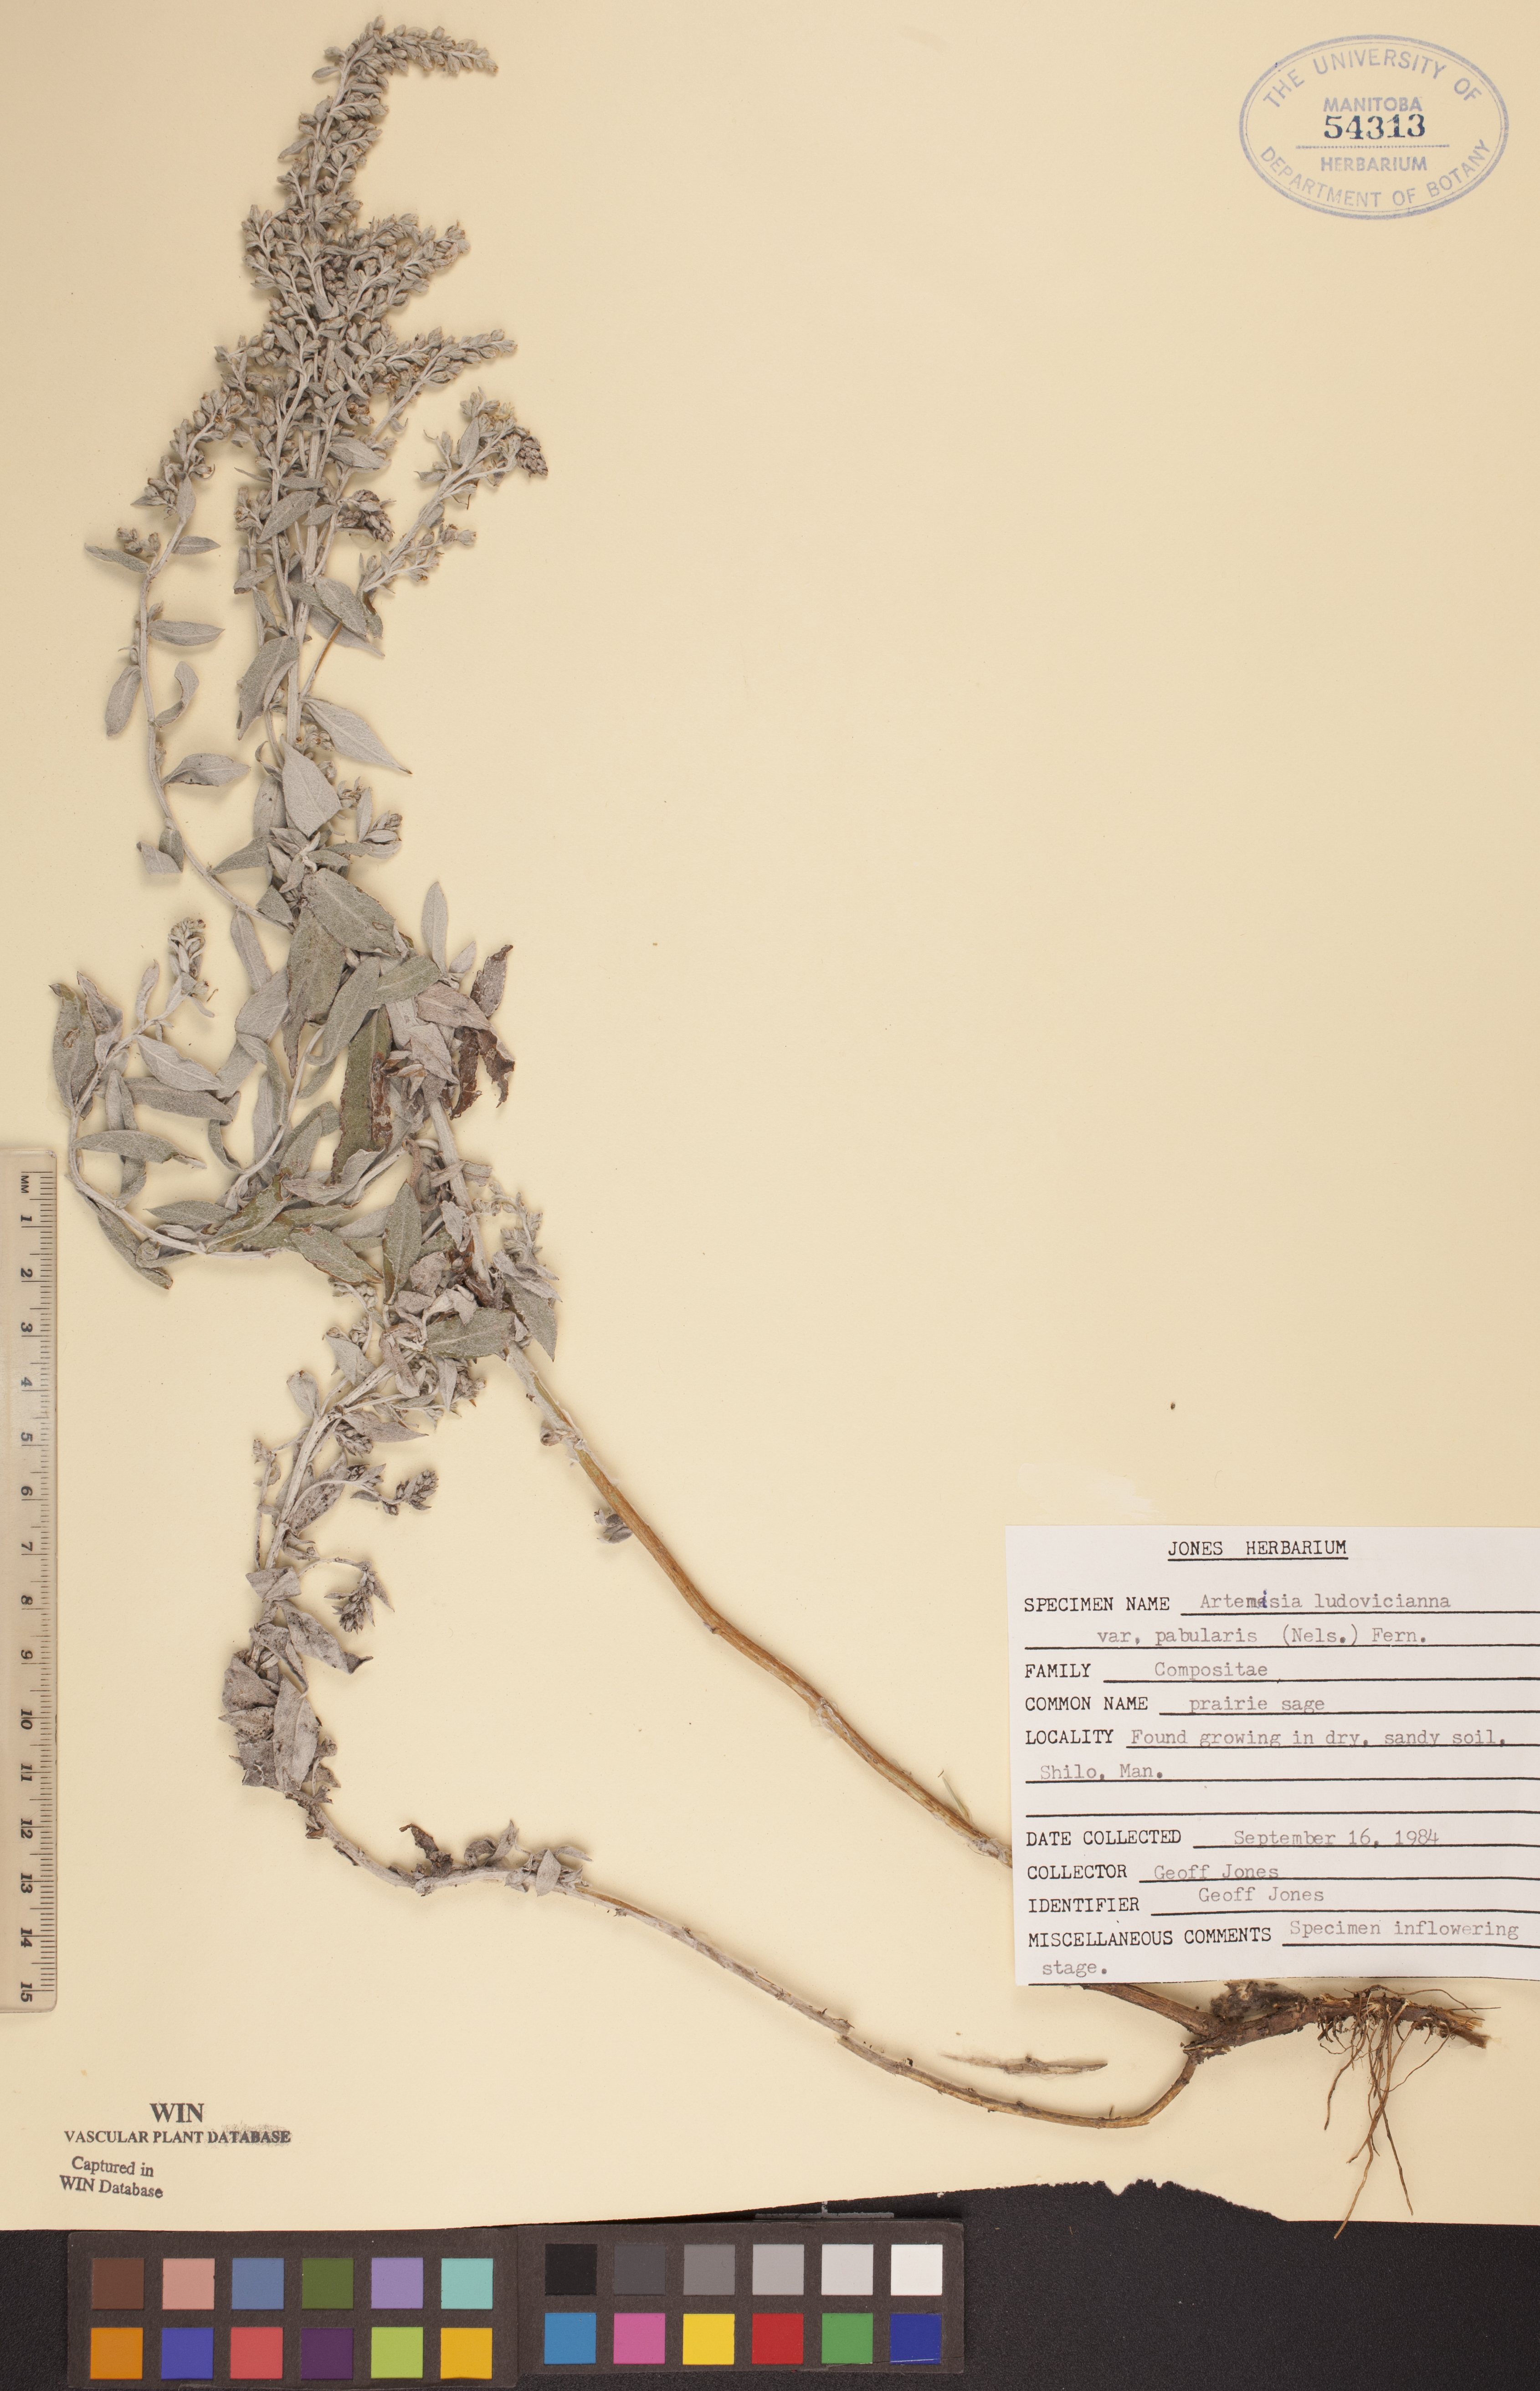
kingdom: Plantae
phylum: Tracheophyta
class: Magnoliopsida
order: Asterales
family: Asteraceae
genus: Artemisia
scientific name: Artemisia ludoviciana
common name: Western mugwort
